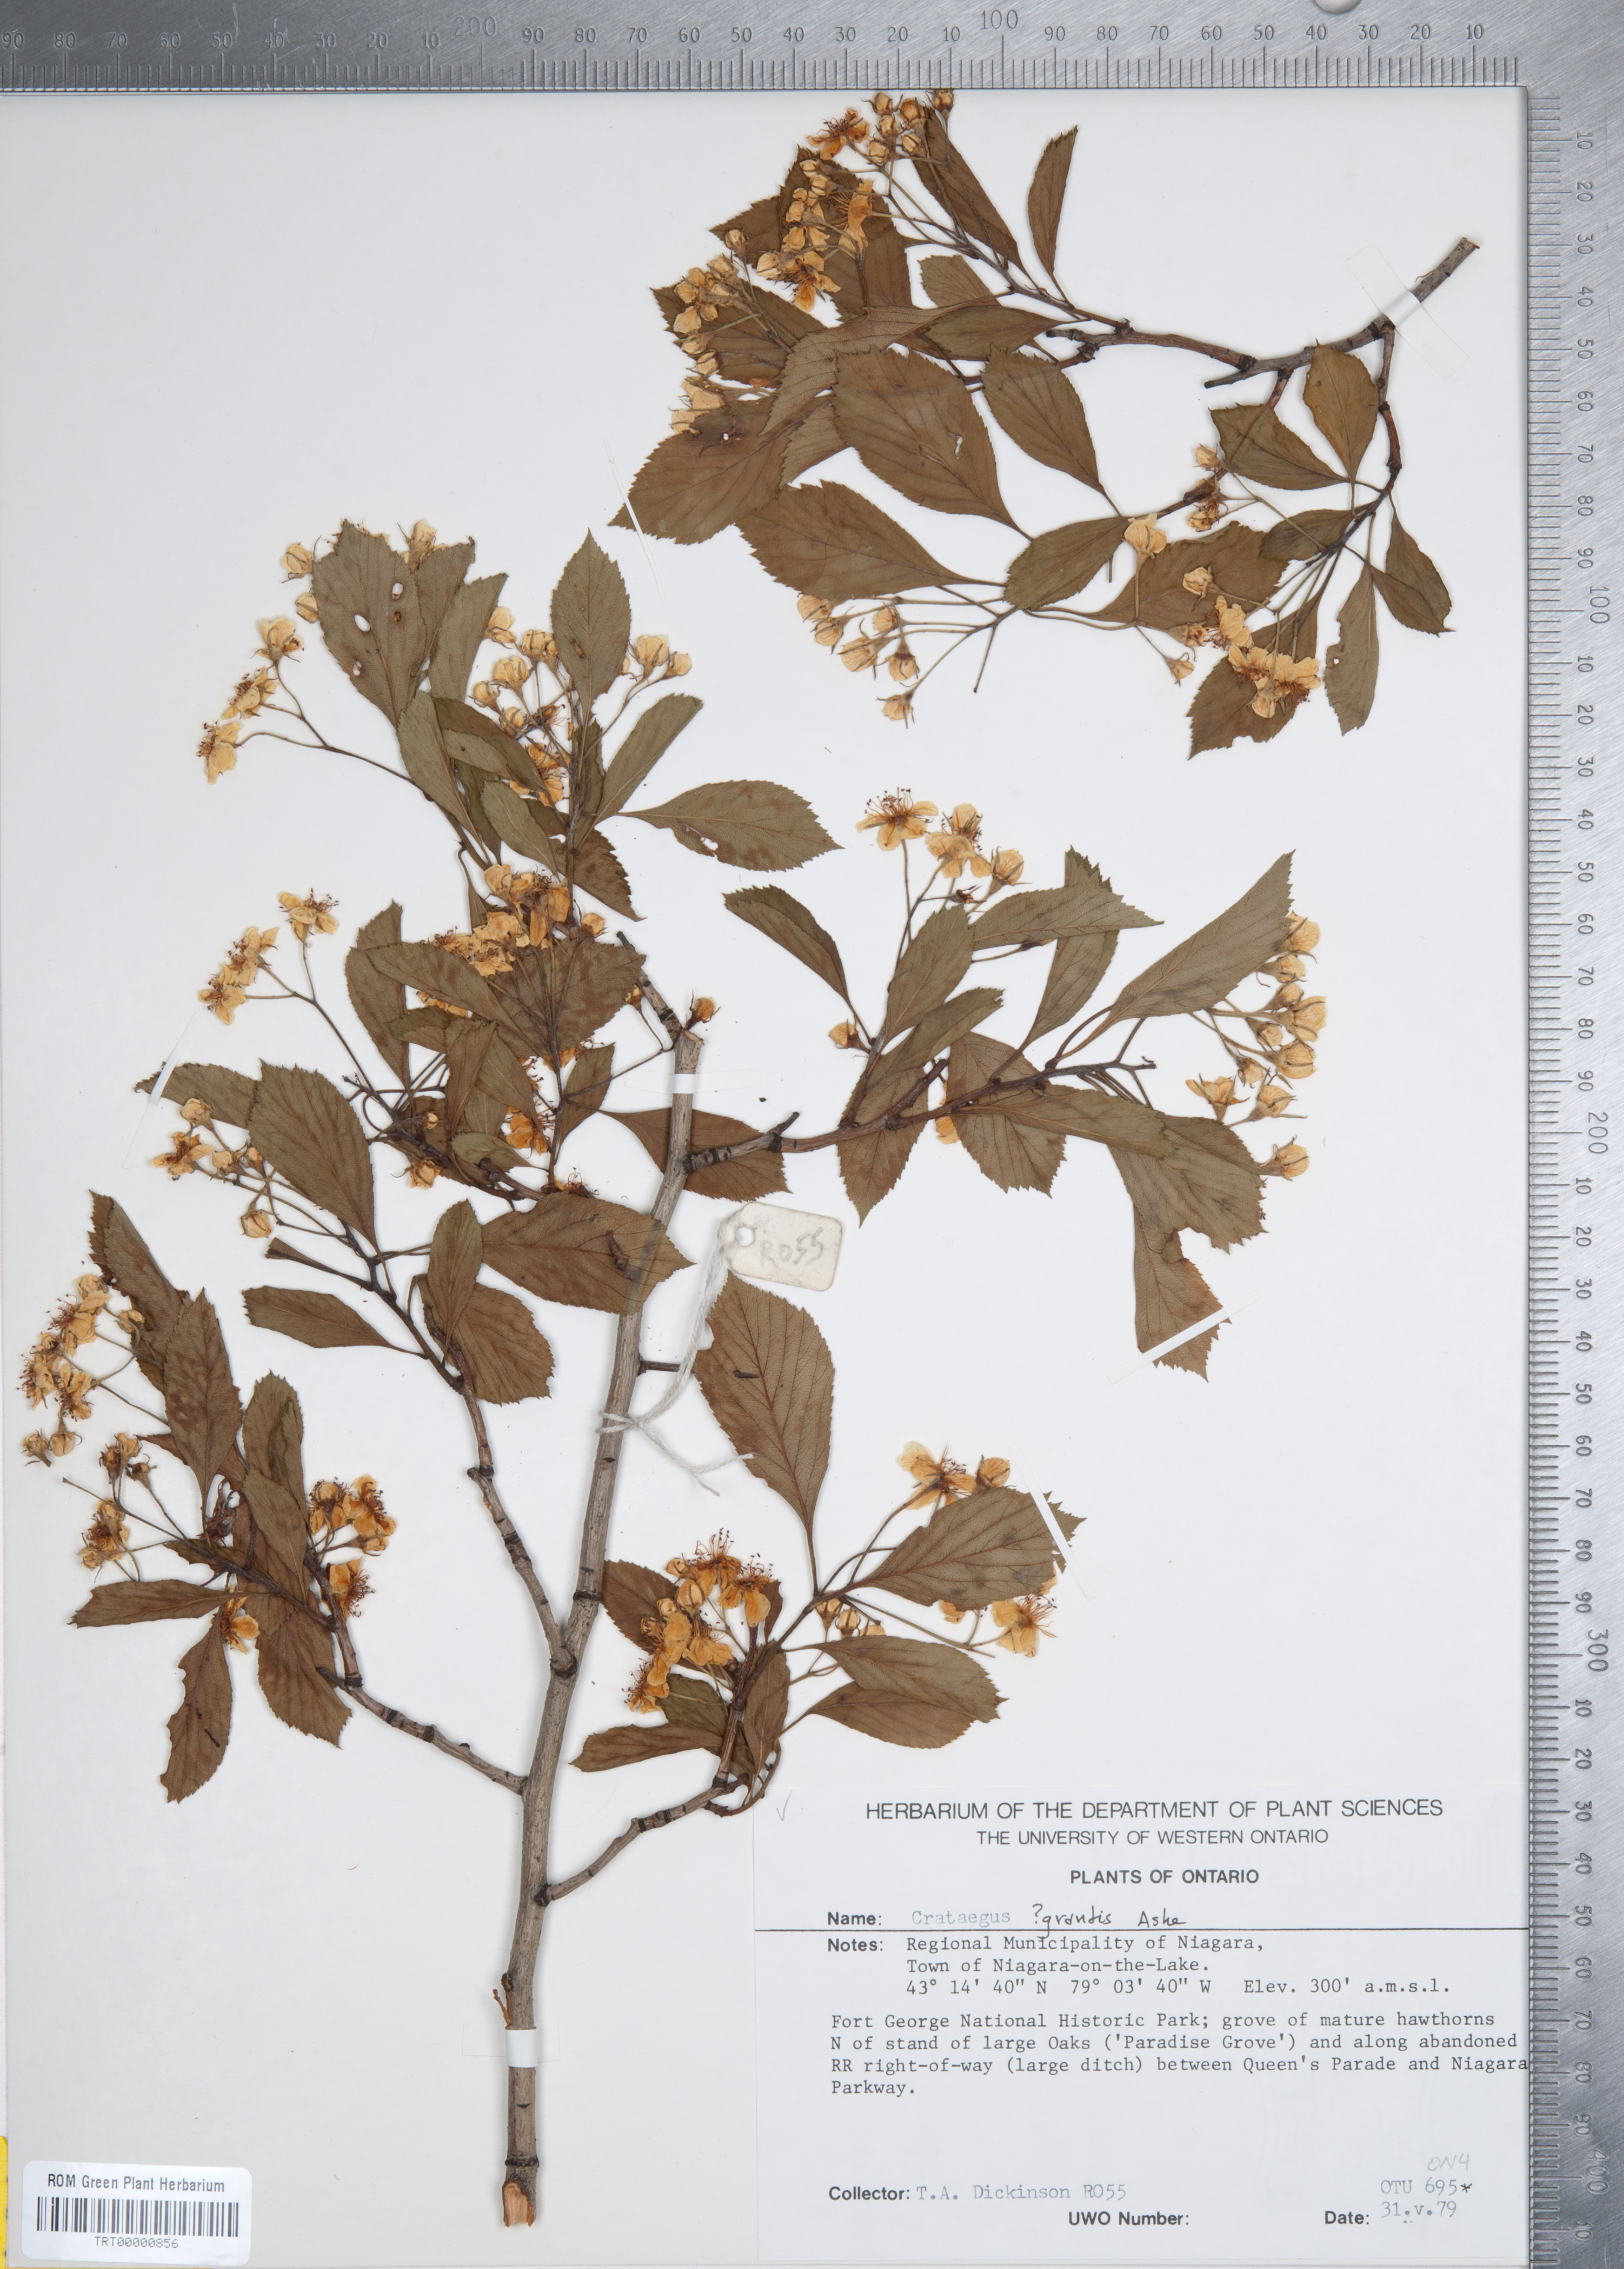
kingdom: Plantae
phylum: Tracheophyta
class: Magnoliopsida
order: Rosales
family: Rosaceae
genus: Crataegus
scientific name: Crataegus disperma
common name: Spreading hawthorn
